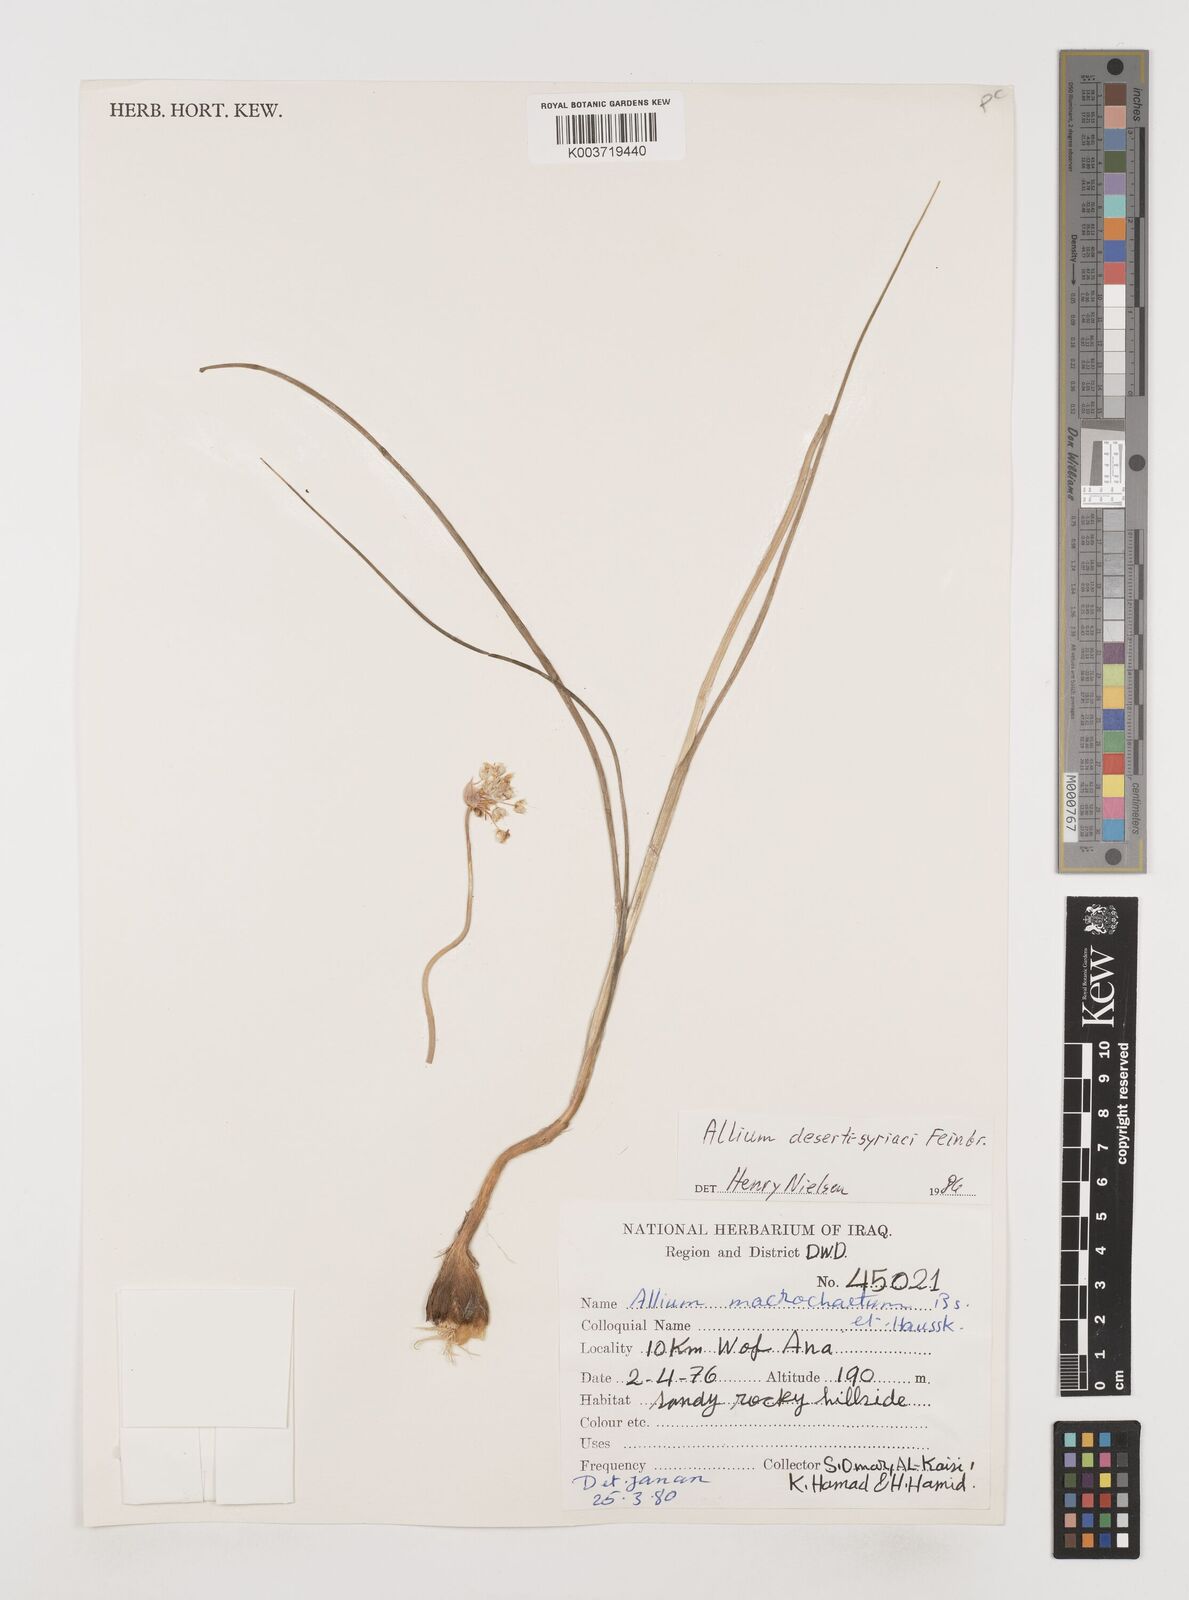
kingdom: Plantae
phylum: Tracheophyta
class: Liliopsida
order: Asparagales
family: Amaryllidaceae
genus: Allium
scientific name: Allium deserti-syriaci
